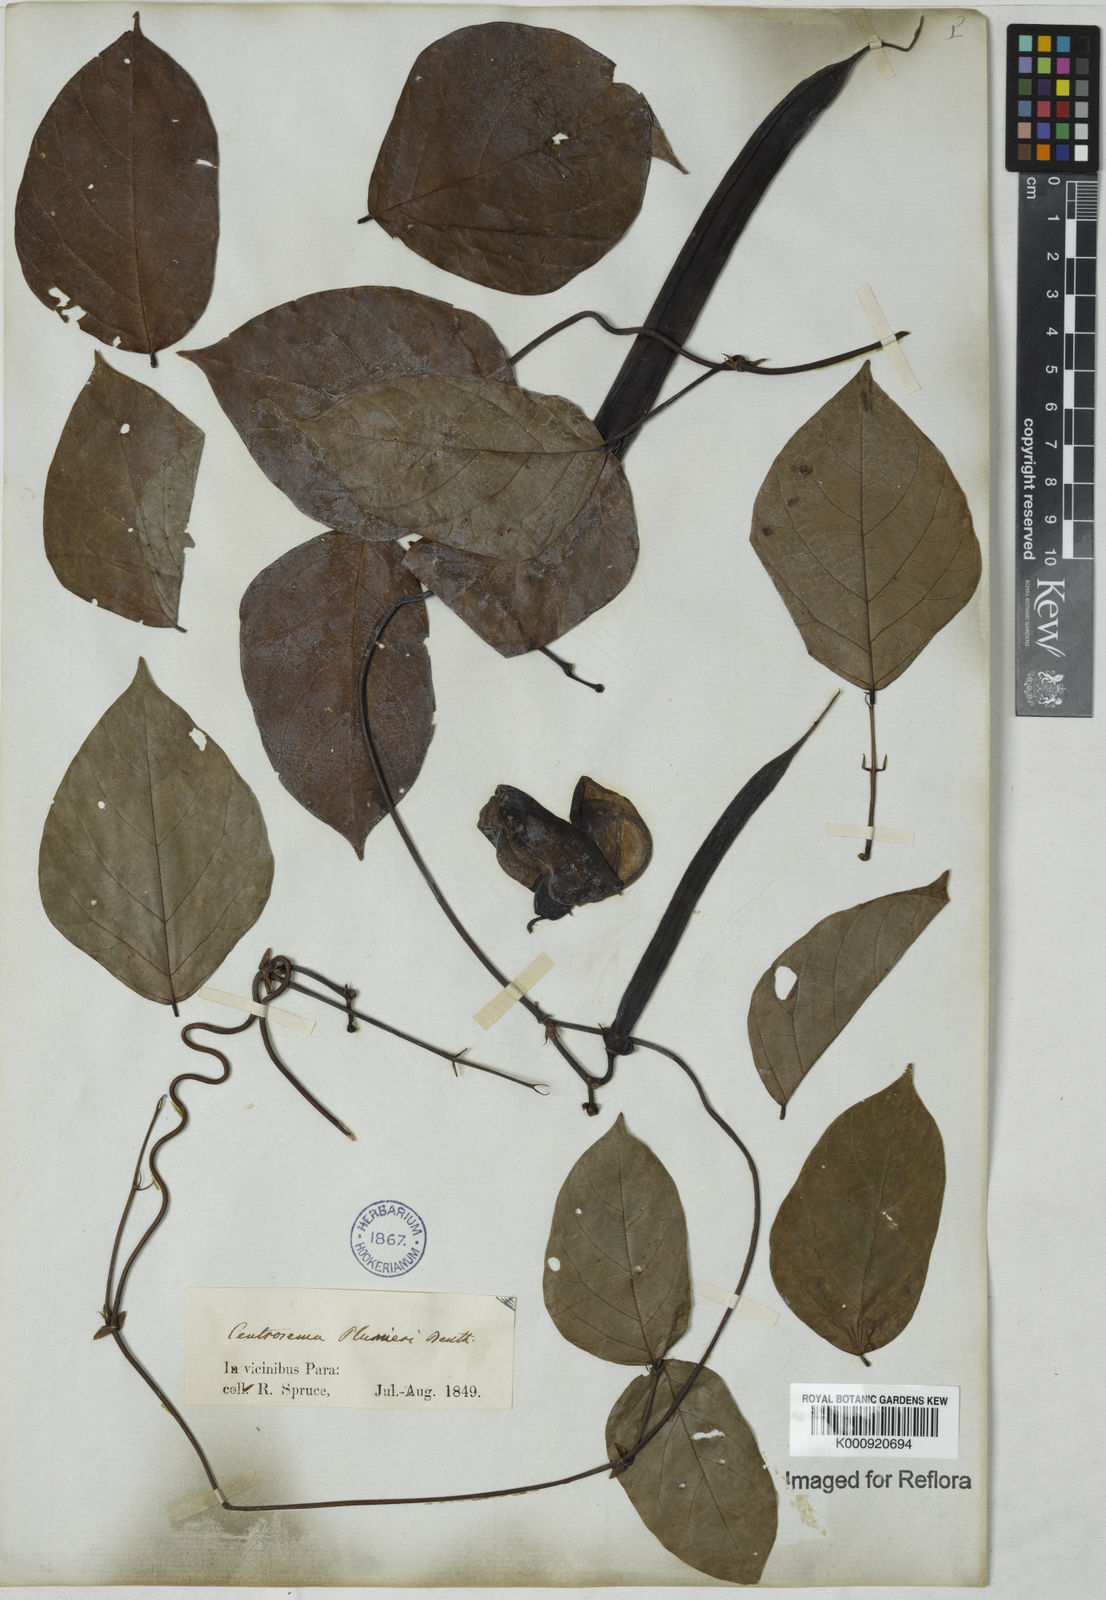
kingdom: Plantae
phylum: Tracheophyta
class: Magnoliopsida
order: Fabales
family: Fabaceae
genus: Centrosema
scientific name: Centrosema plumieri
